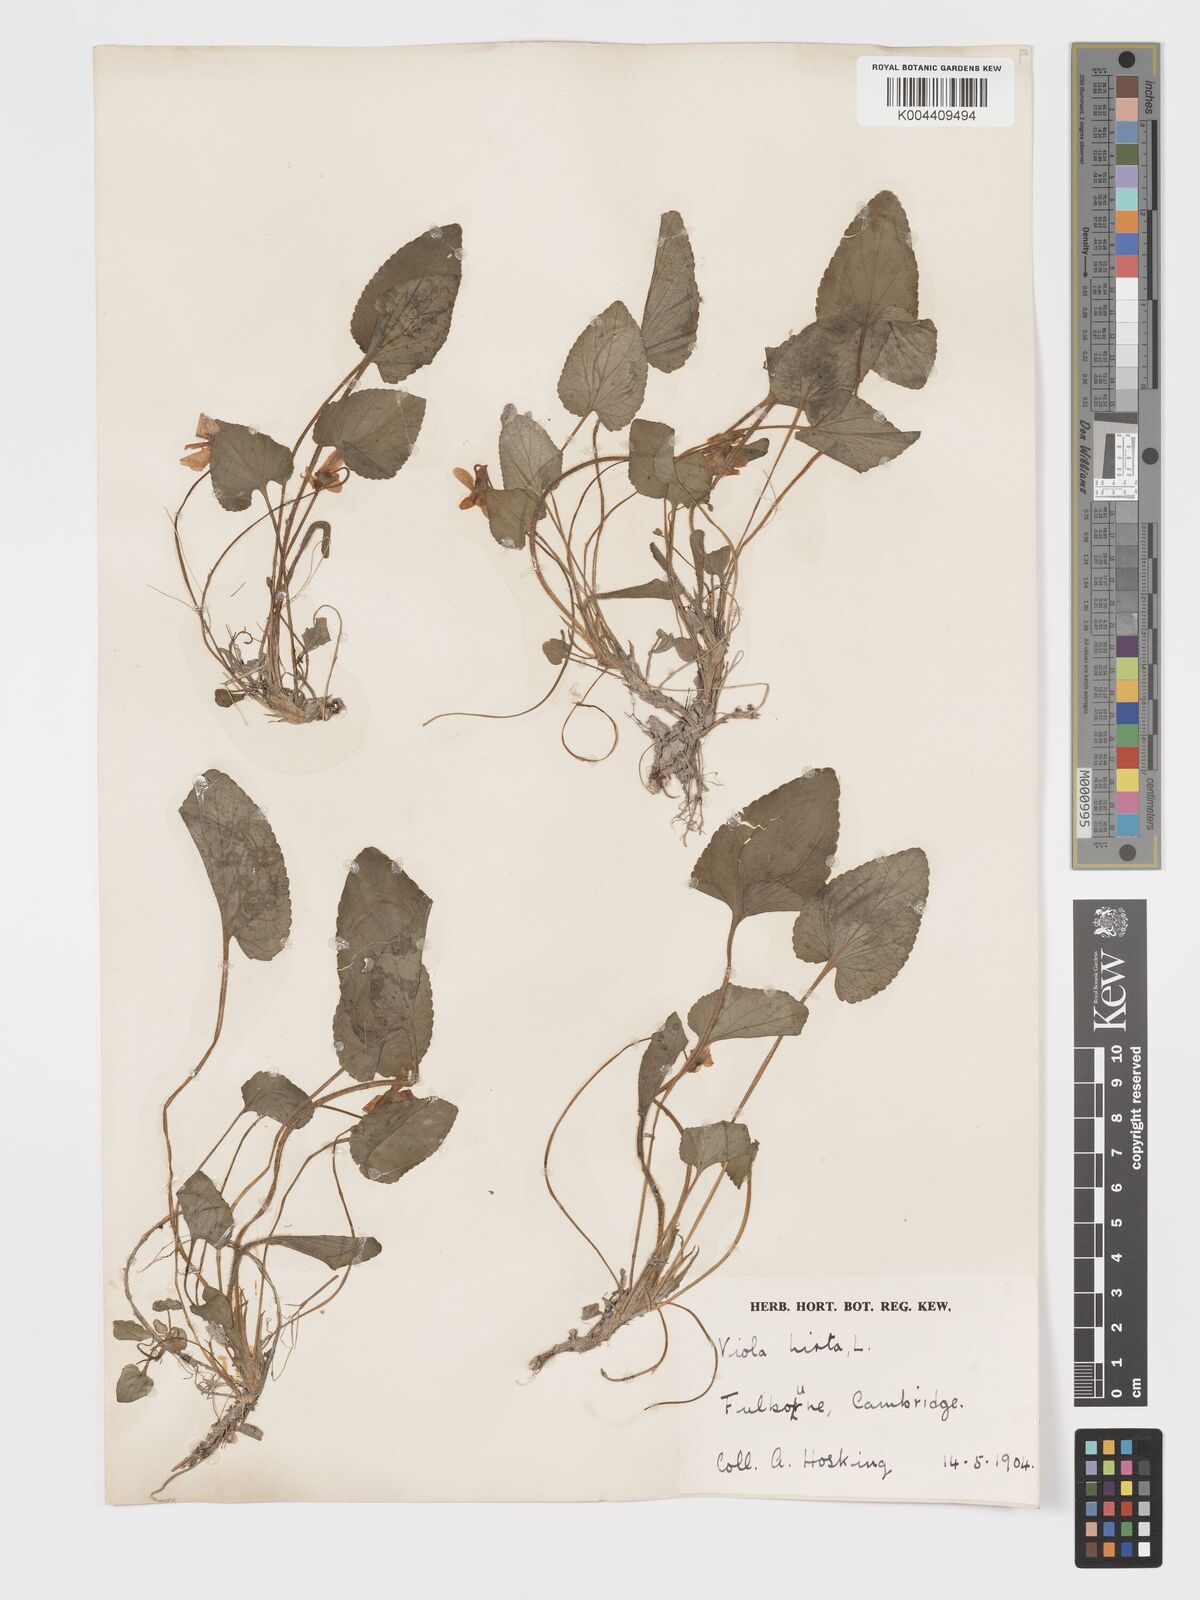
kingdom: Plantae
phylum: Tracheophyta
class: Magnoliopsida
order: Malpighiales
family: Violaceae
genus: Viola
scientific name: Viola
